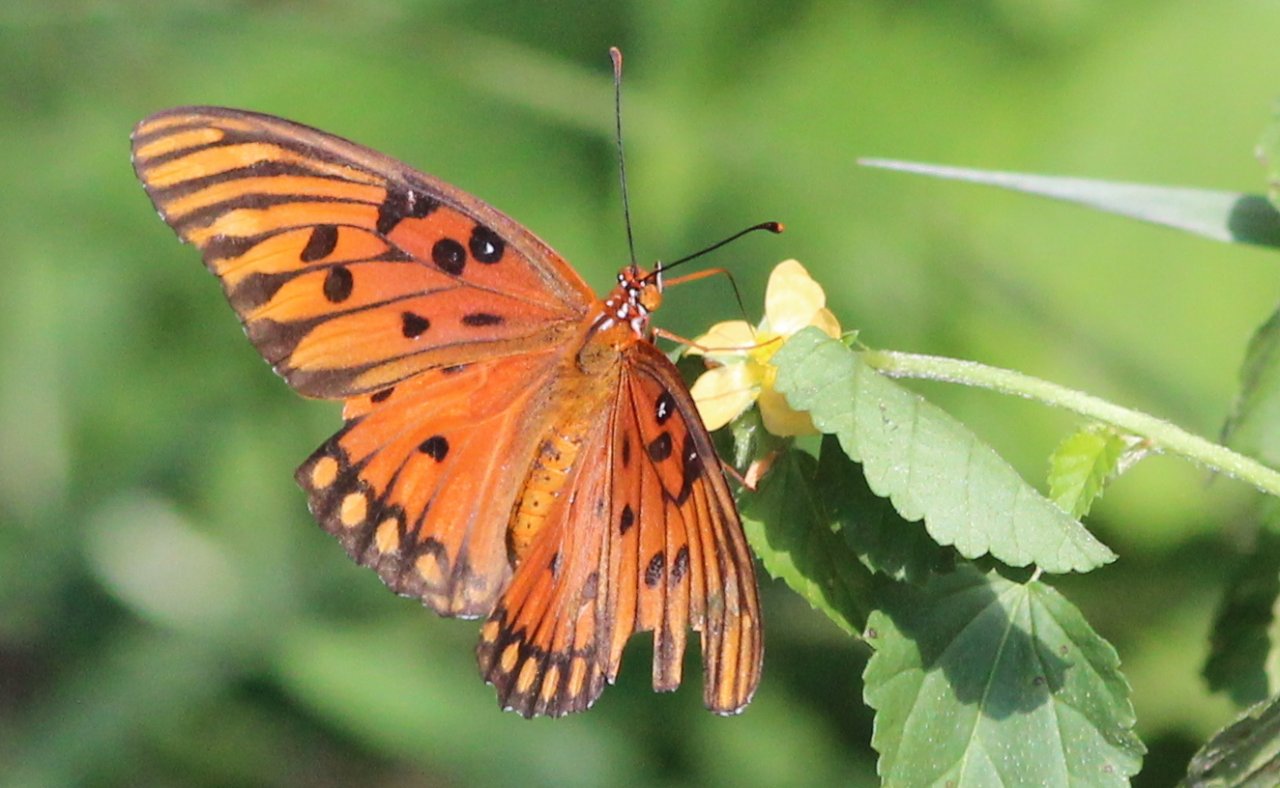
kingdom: Animalia
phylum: Arthropoda
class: Insecta
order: Lepidoptera
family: Nymphalidae
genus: Dione
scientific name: Dione vanillae
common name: Gulf Fritillary
